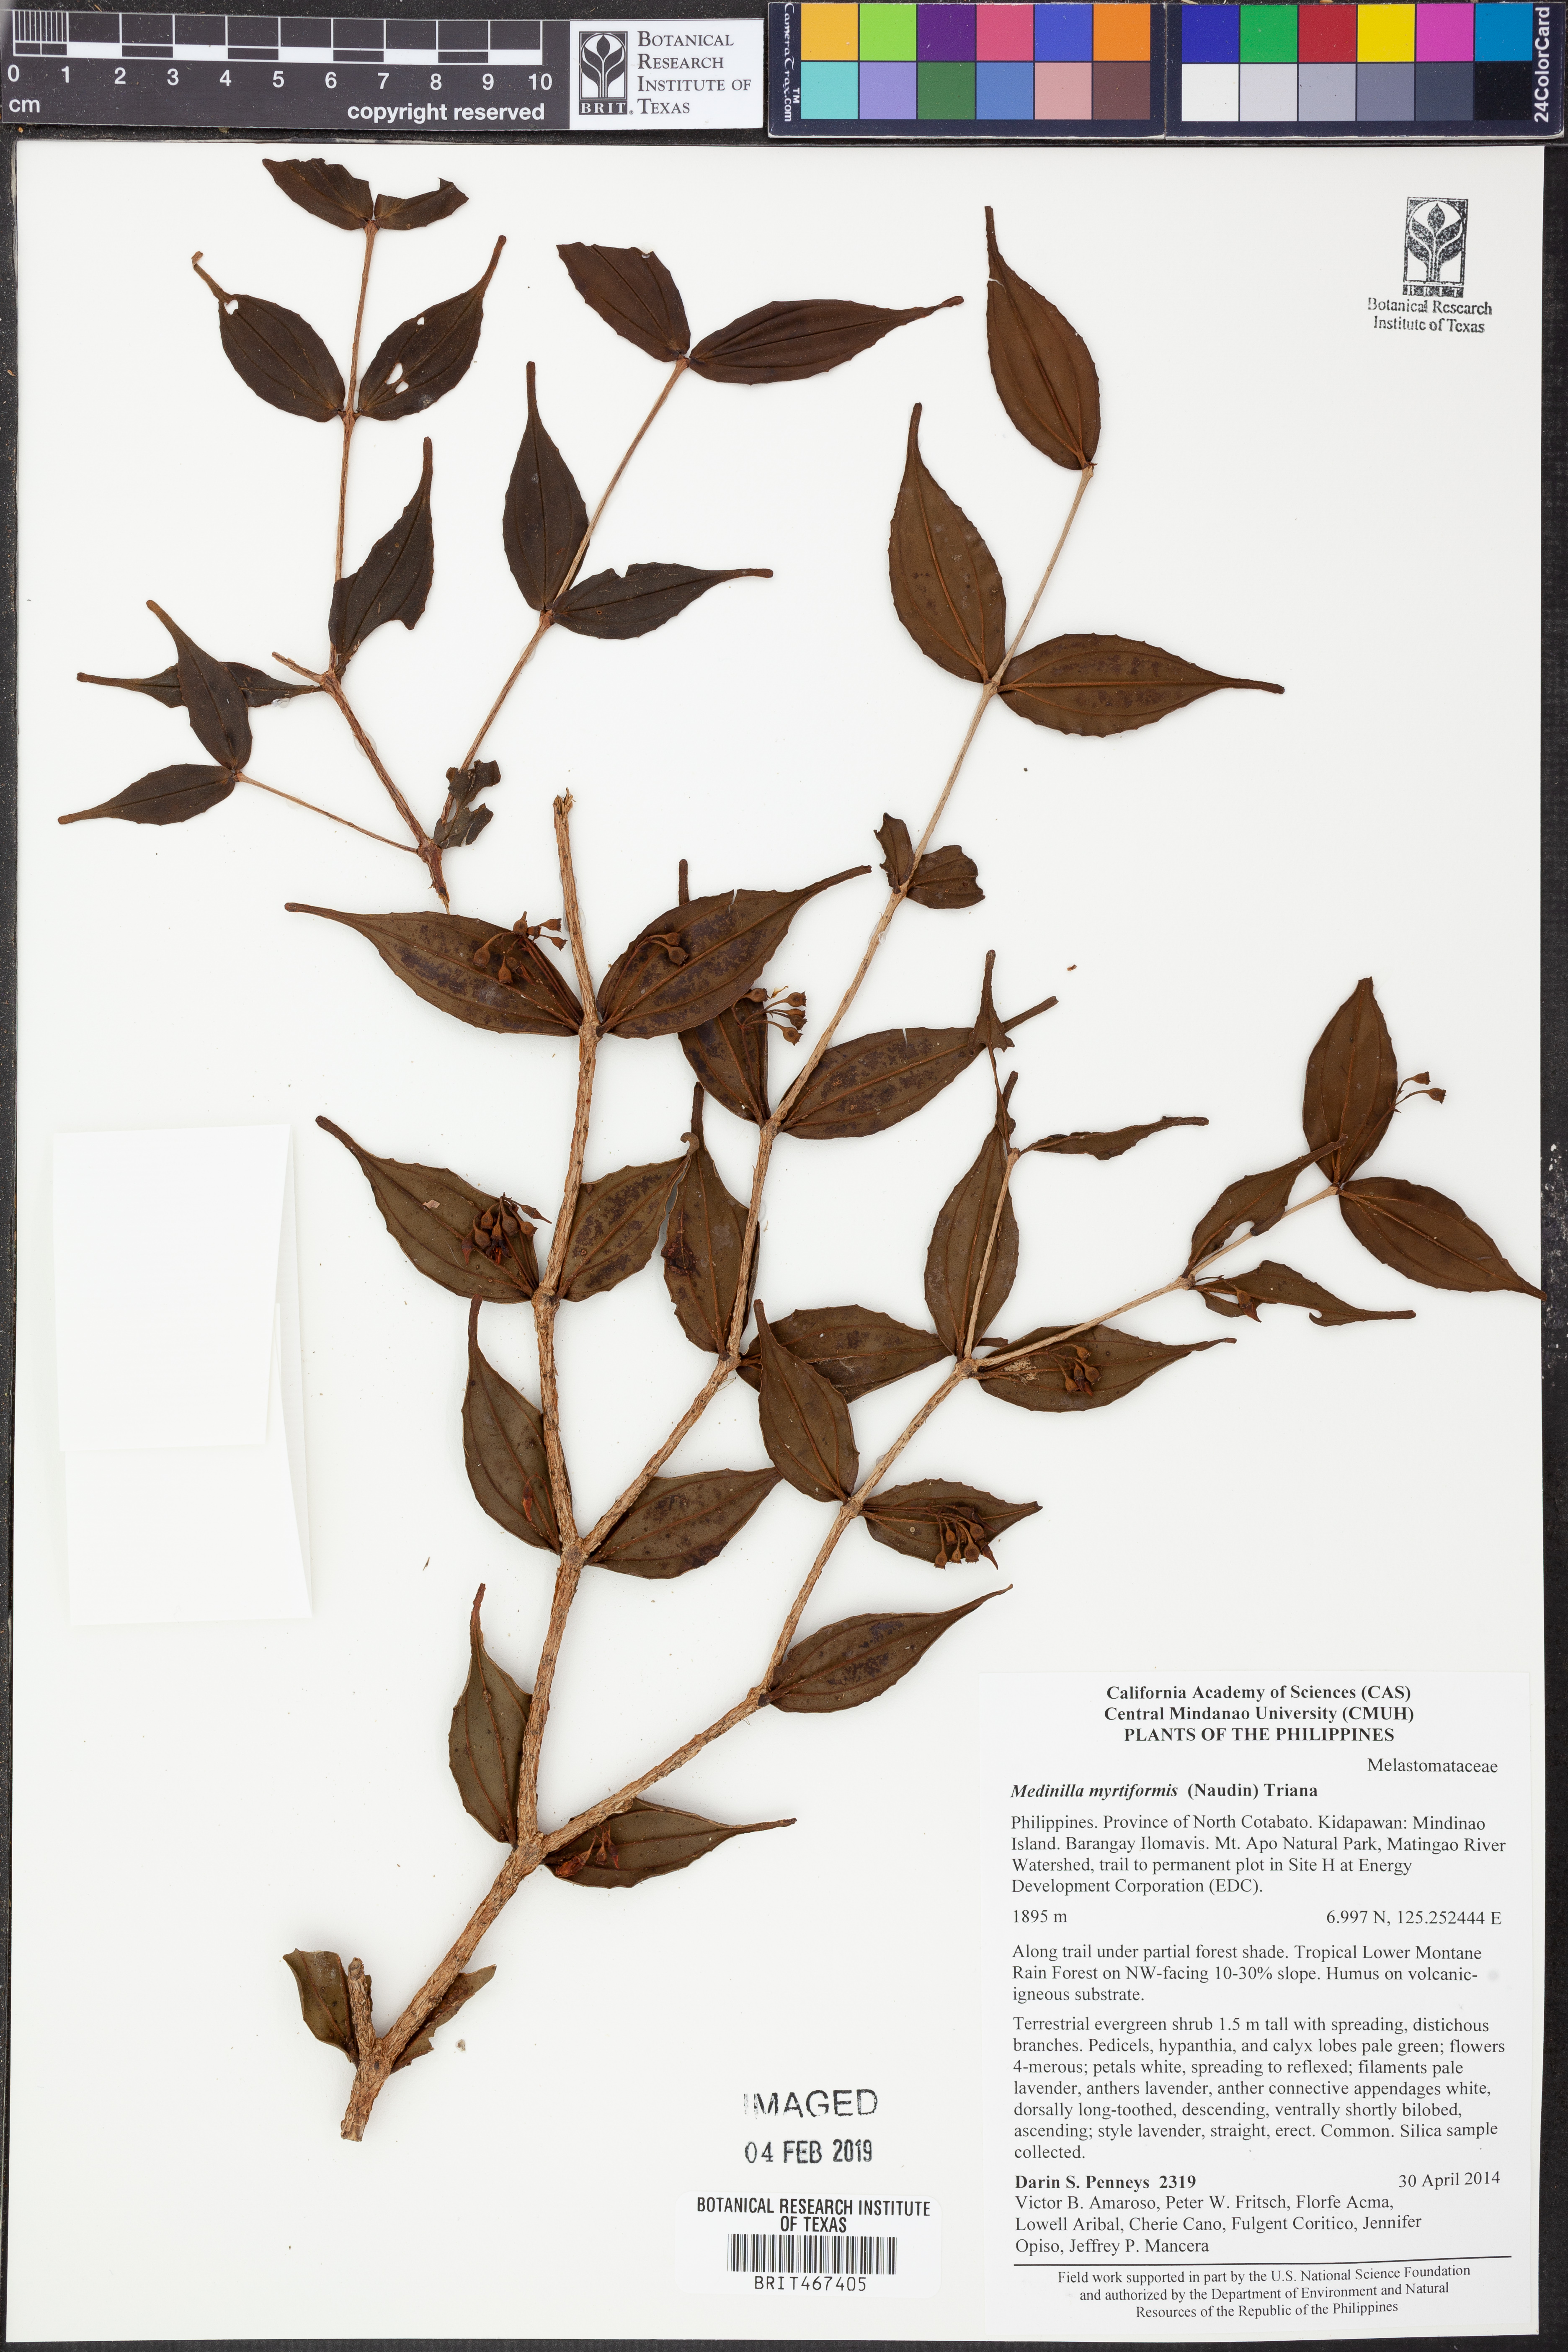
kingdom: Plantae
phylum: Tracheophyta
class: Magnoliopsida
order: Myrtales
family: Melastomataceae
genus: Medinilla
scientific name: Medinilla myrtiformis
